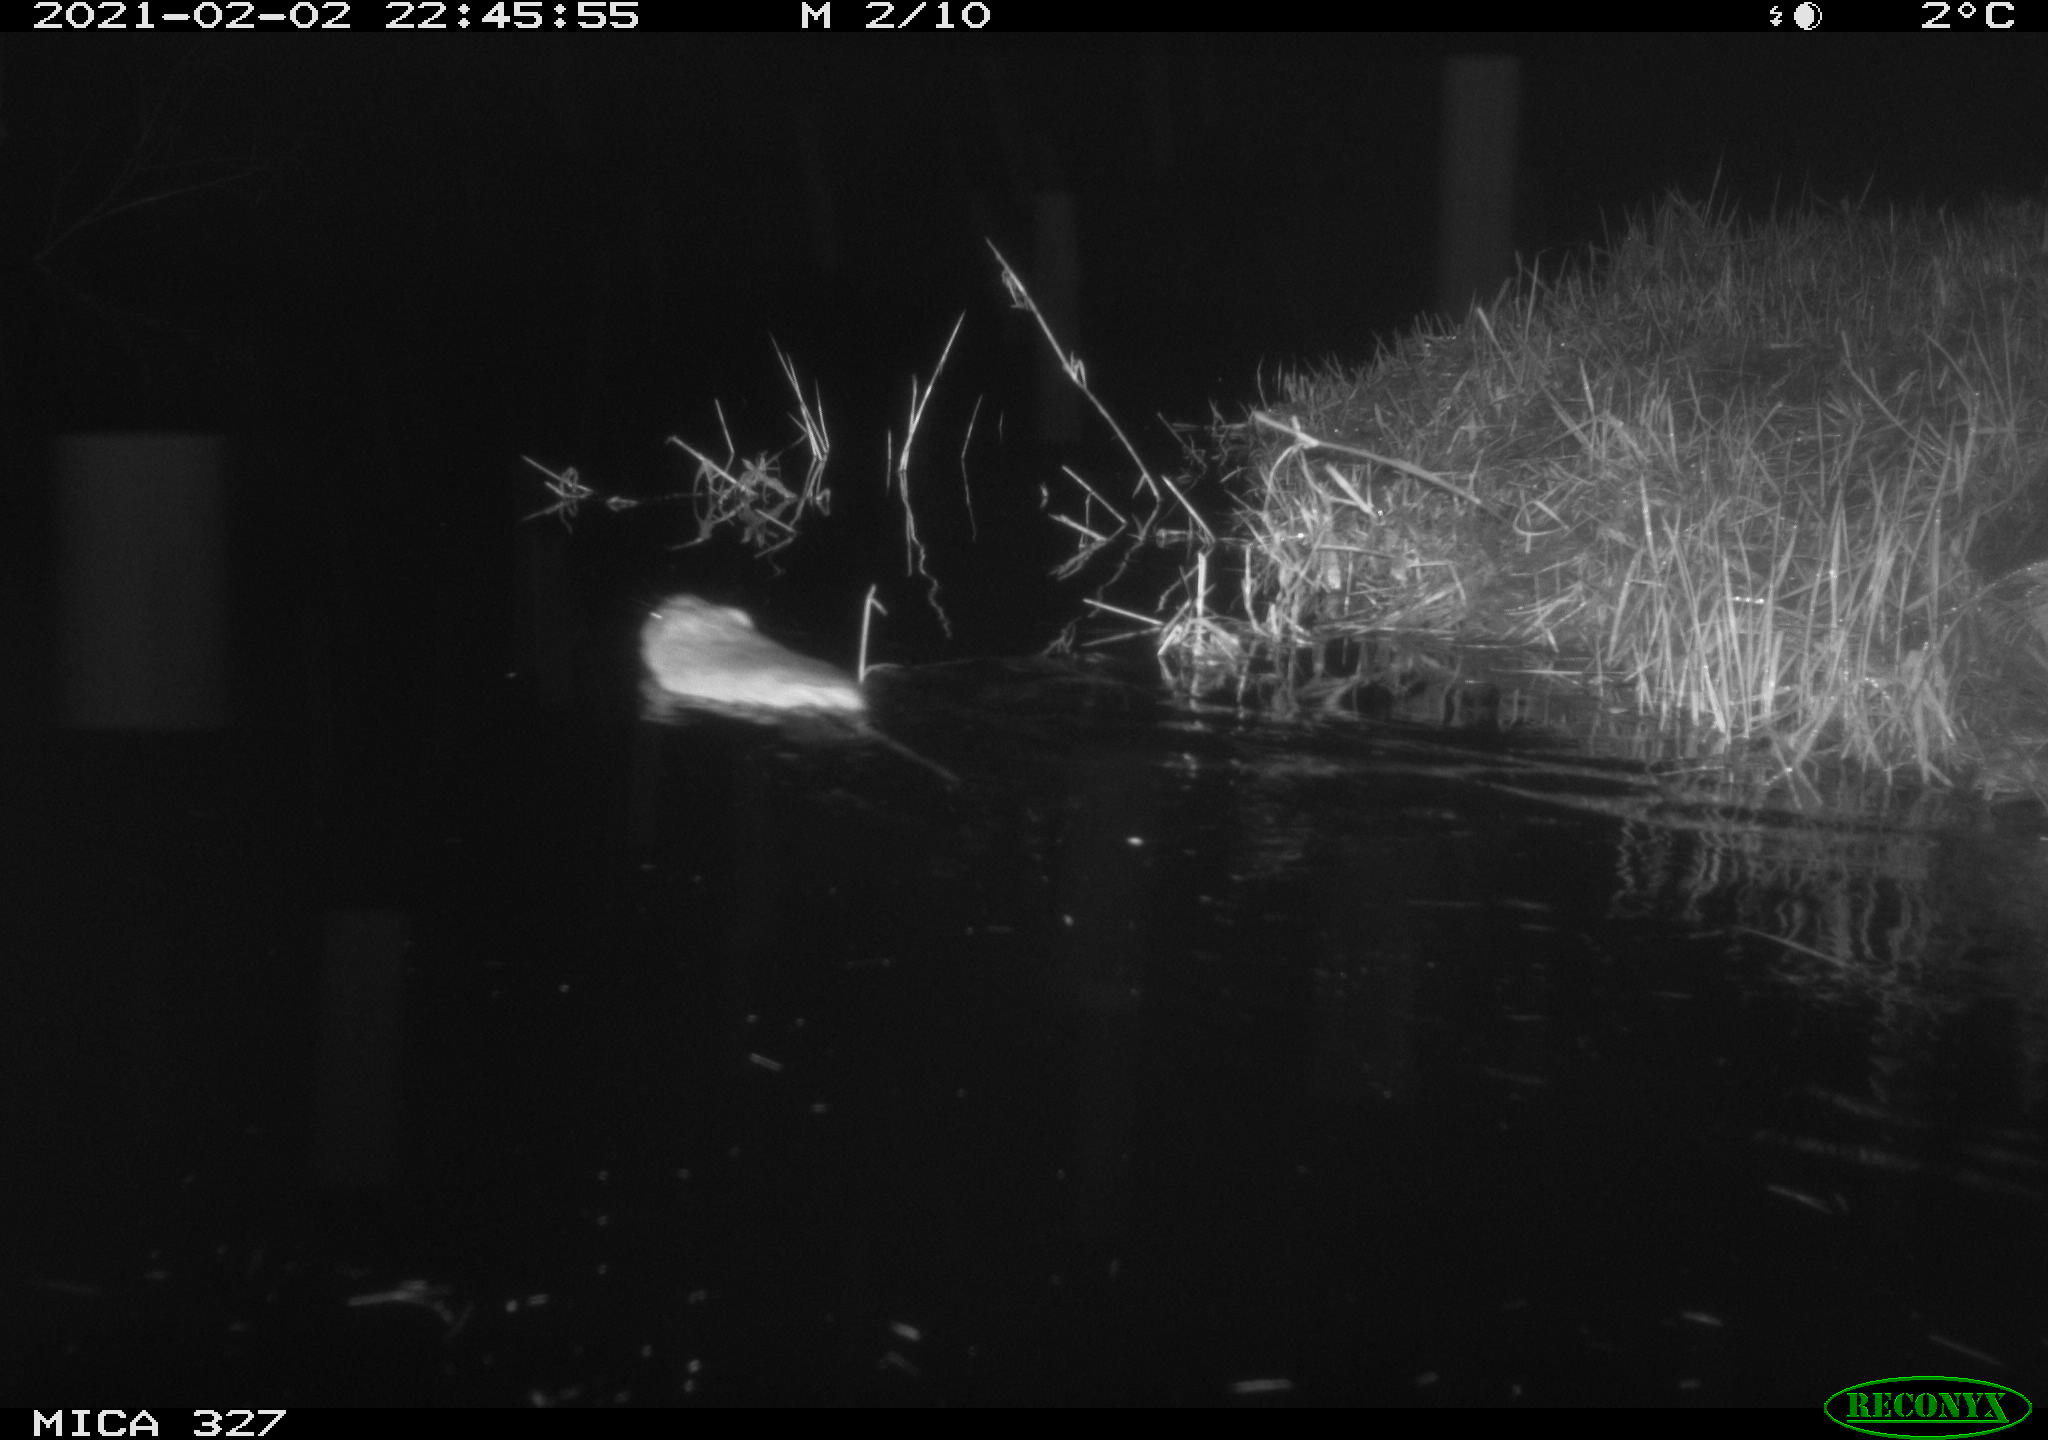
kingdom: Animalia
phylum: Chordata
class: Mammalia
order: Rodentia
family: Cricetidae
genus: Ondatra
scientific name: Ondatra zibethicus
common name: Muskrat
